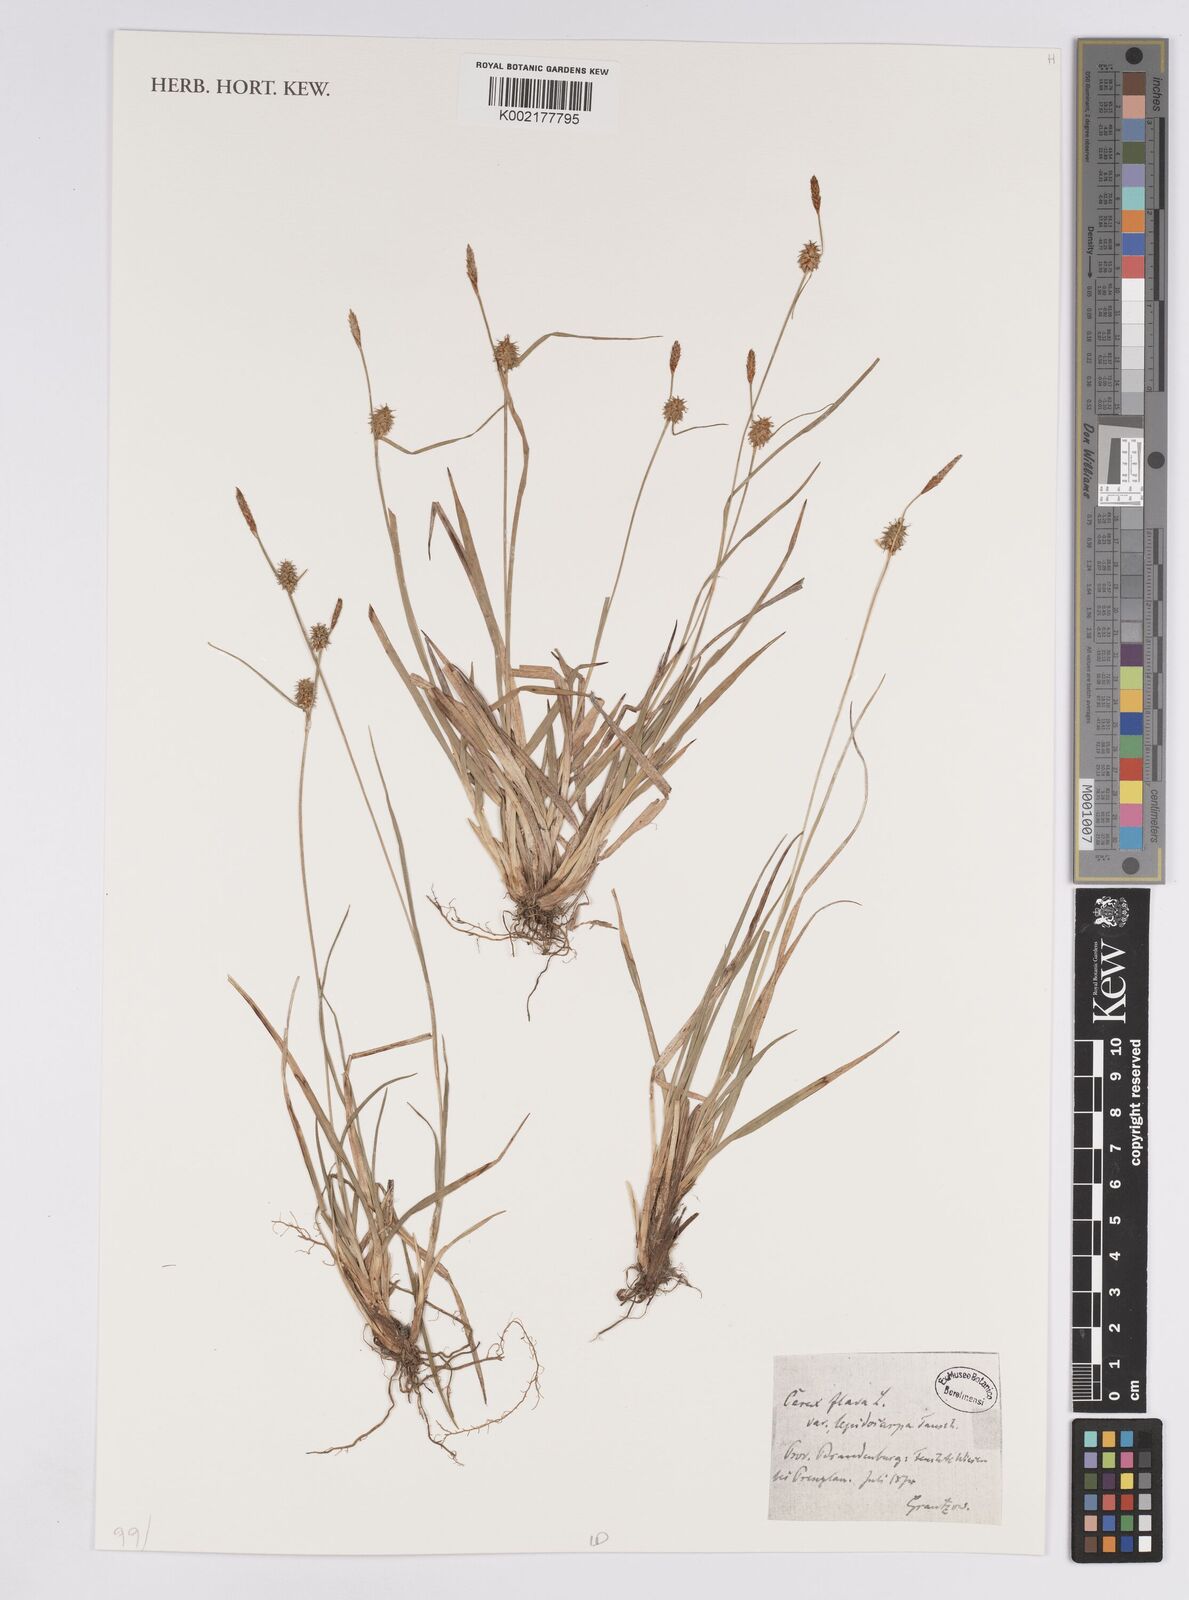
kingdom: Plantae
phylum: Tracheophyta
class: Liliopsida
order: Poales
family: Cyperaceae
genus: Carex
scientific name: Carex flava
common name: Large yellow-sedge
